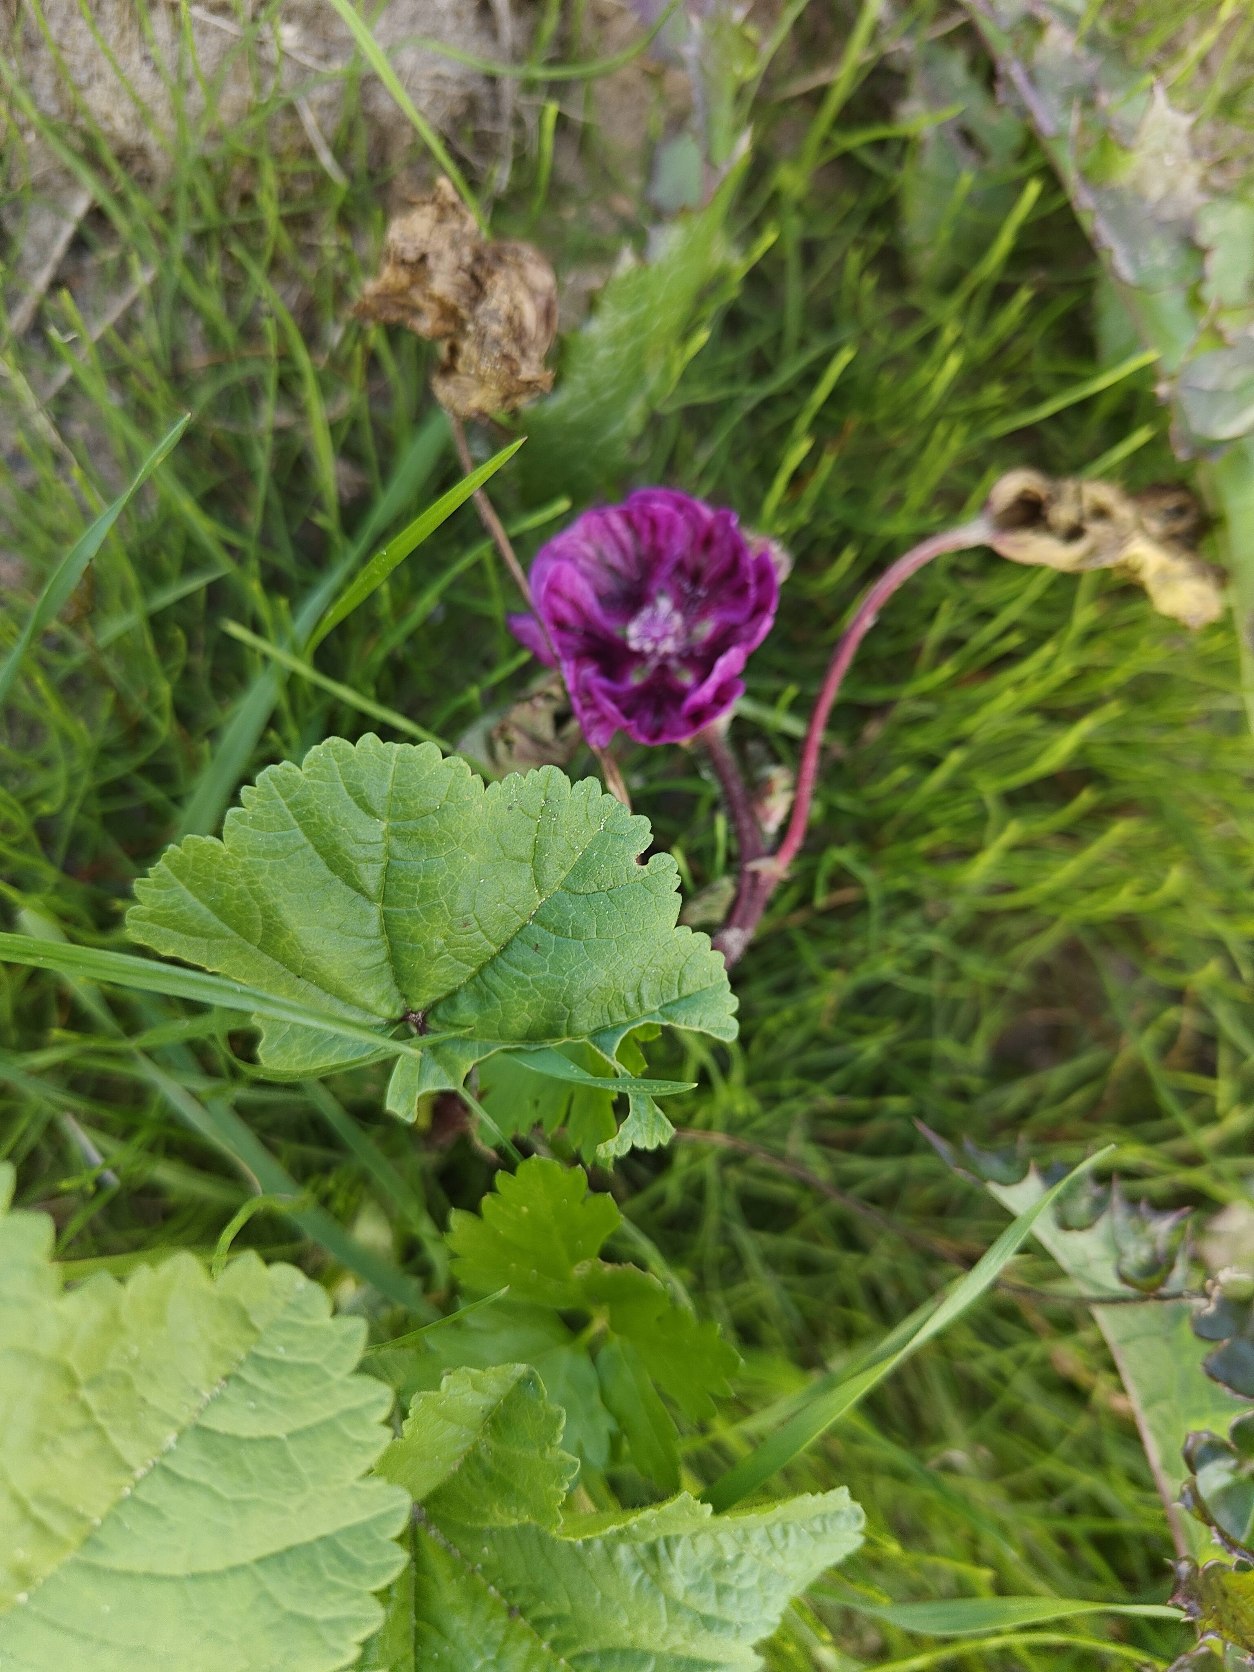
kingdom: Plantae
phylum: Tracheophyta
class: Magnoliopsida
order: Malvales
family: Malvaceae
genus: Malva
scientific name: Malva sylvestris
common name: Stor katost
